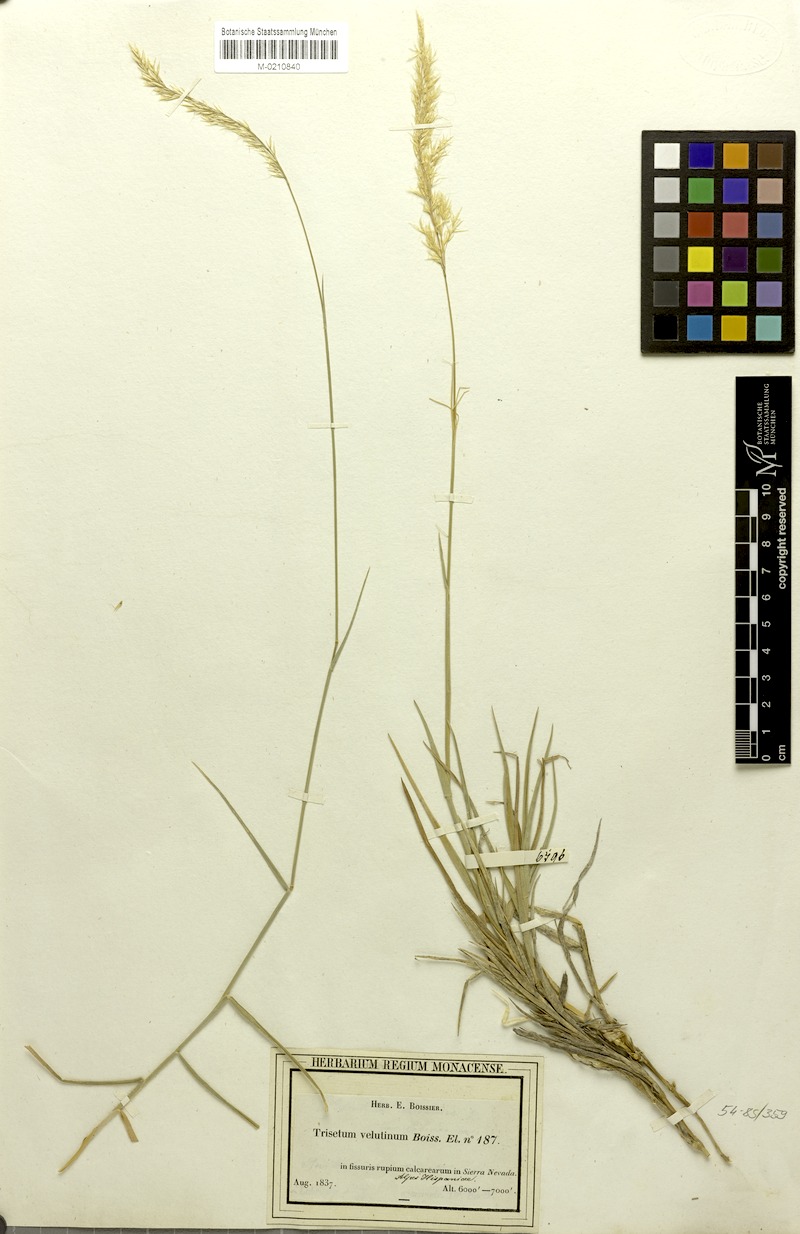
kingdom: Plantae
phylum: Tracheophyta
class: Liliopsida
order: Poales
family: Poaceae
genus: Trisetum
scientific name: Trisetum velutinum
